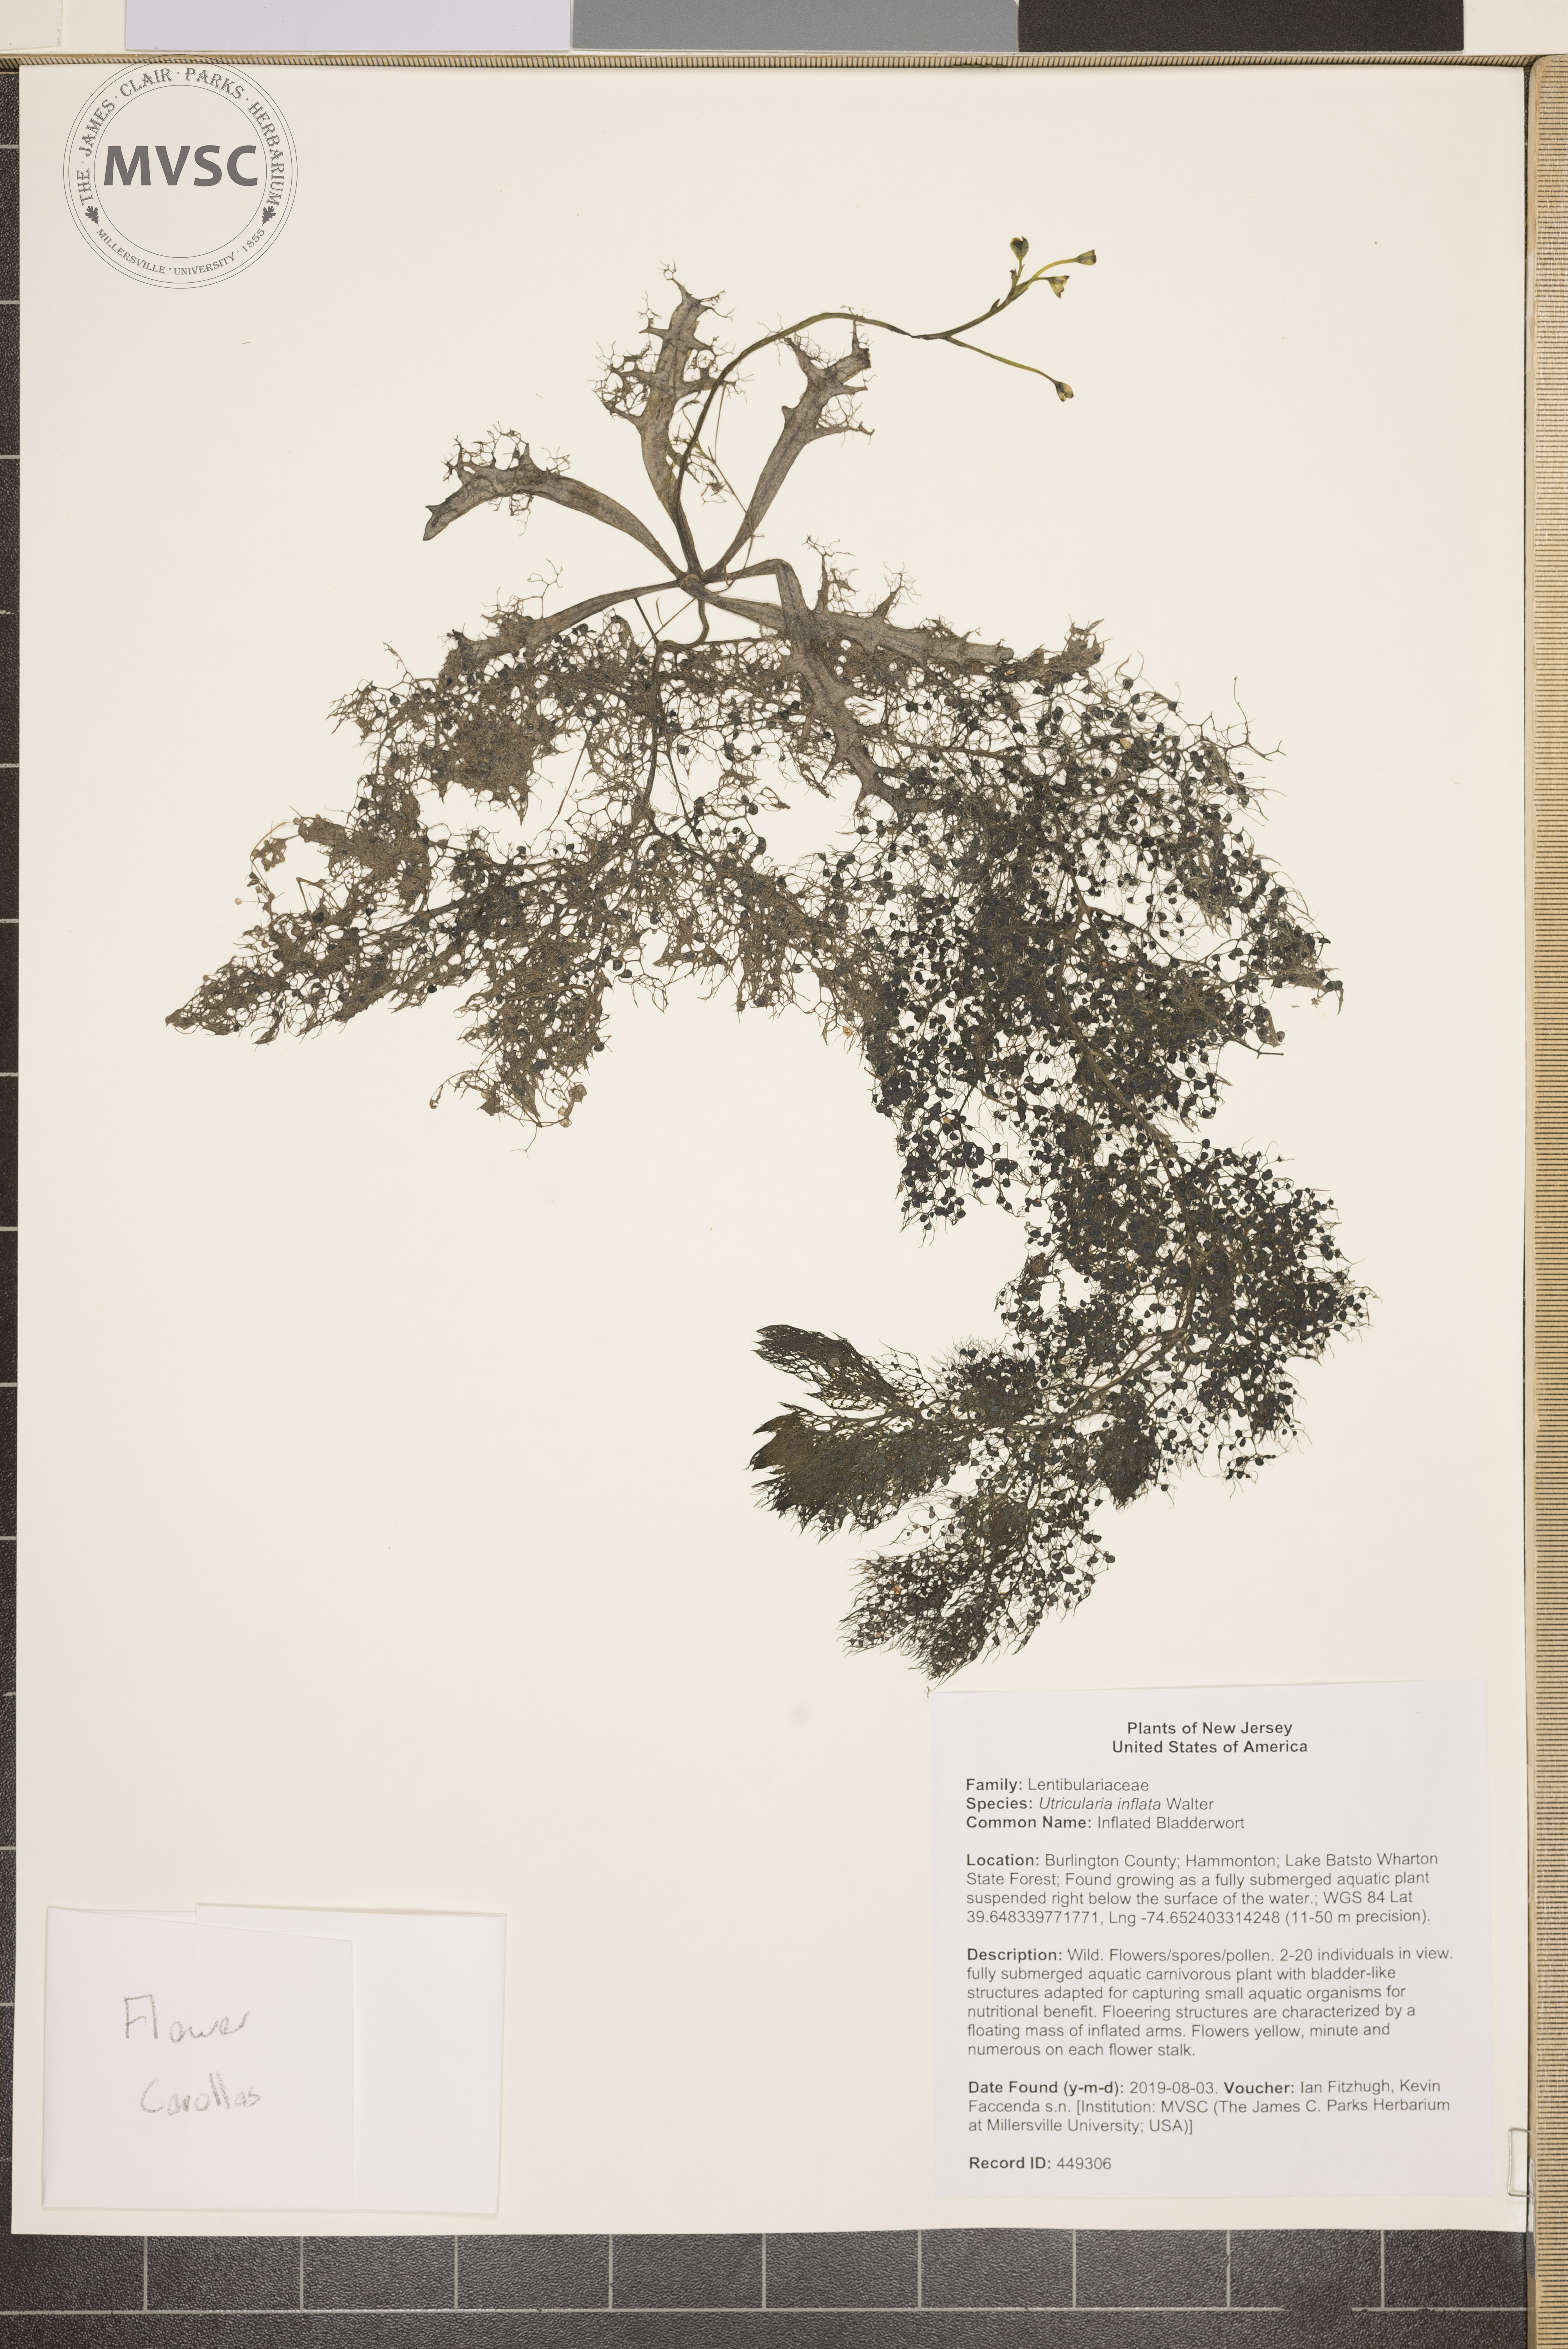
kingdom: Plantae
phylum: Tracheophyta
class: Magnoliopsida
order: Lamiales
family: Lentibulariaceae
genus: Utricularia
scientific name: Utricularia inflata
